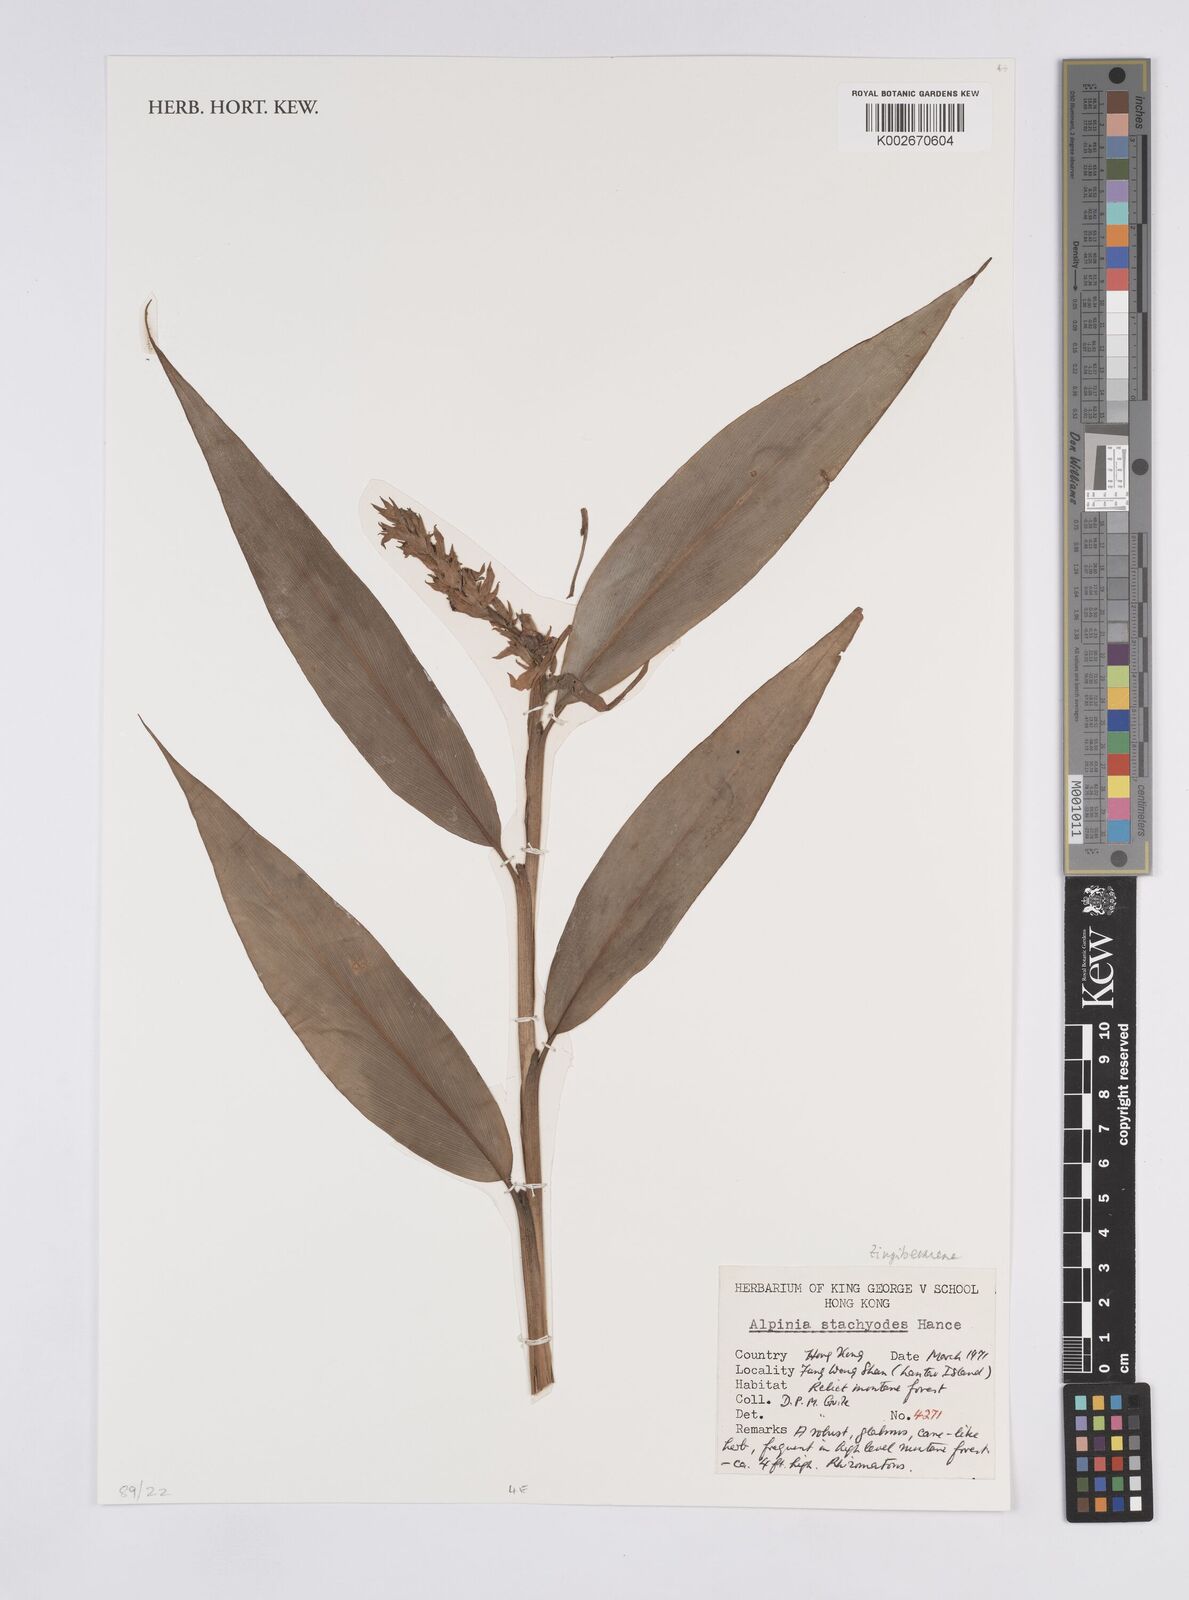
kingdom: Plantae
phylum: Tracheophyta
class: Liliopsida
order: Zingiberales
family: Zingiberaceae
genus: Alpinia
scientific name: Alpinia stachyodes
